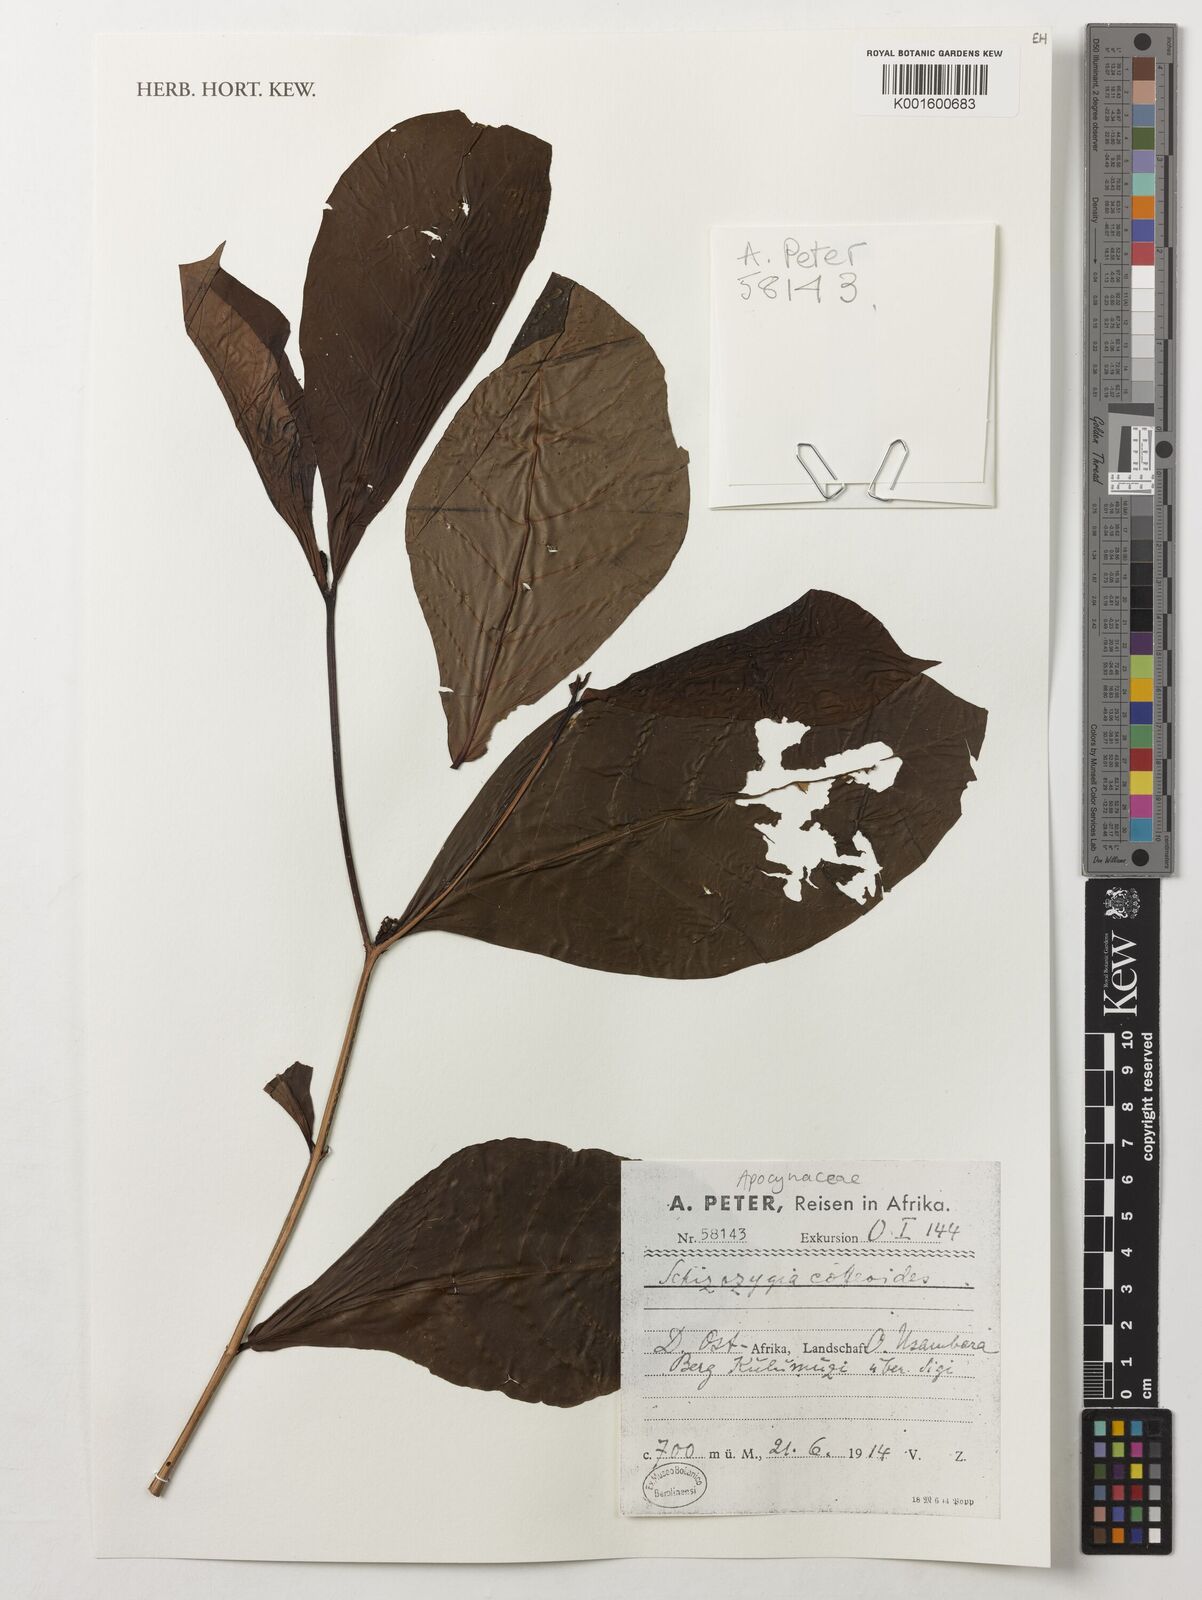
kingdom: Plantae
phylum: Tracheophyta
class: Magnoliopsida
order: Gentianales
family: Apocynaceae
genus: Schizozygia
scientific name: Schizozygia coffeoides
